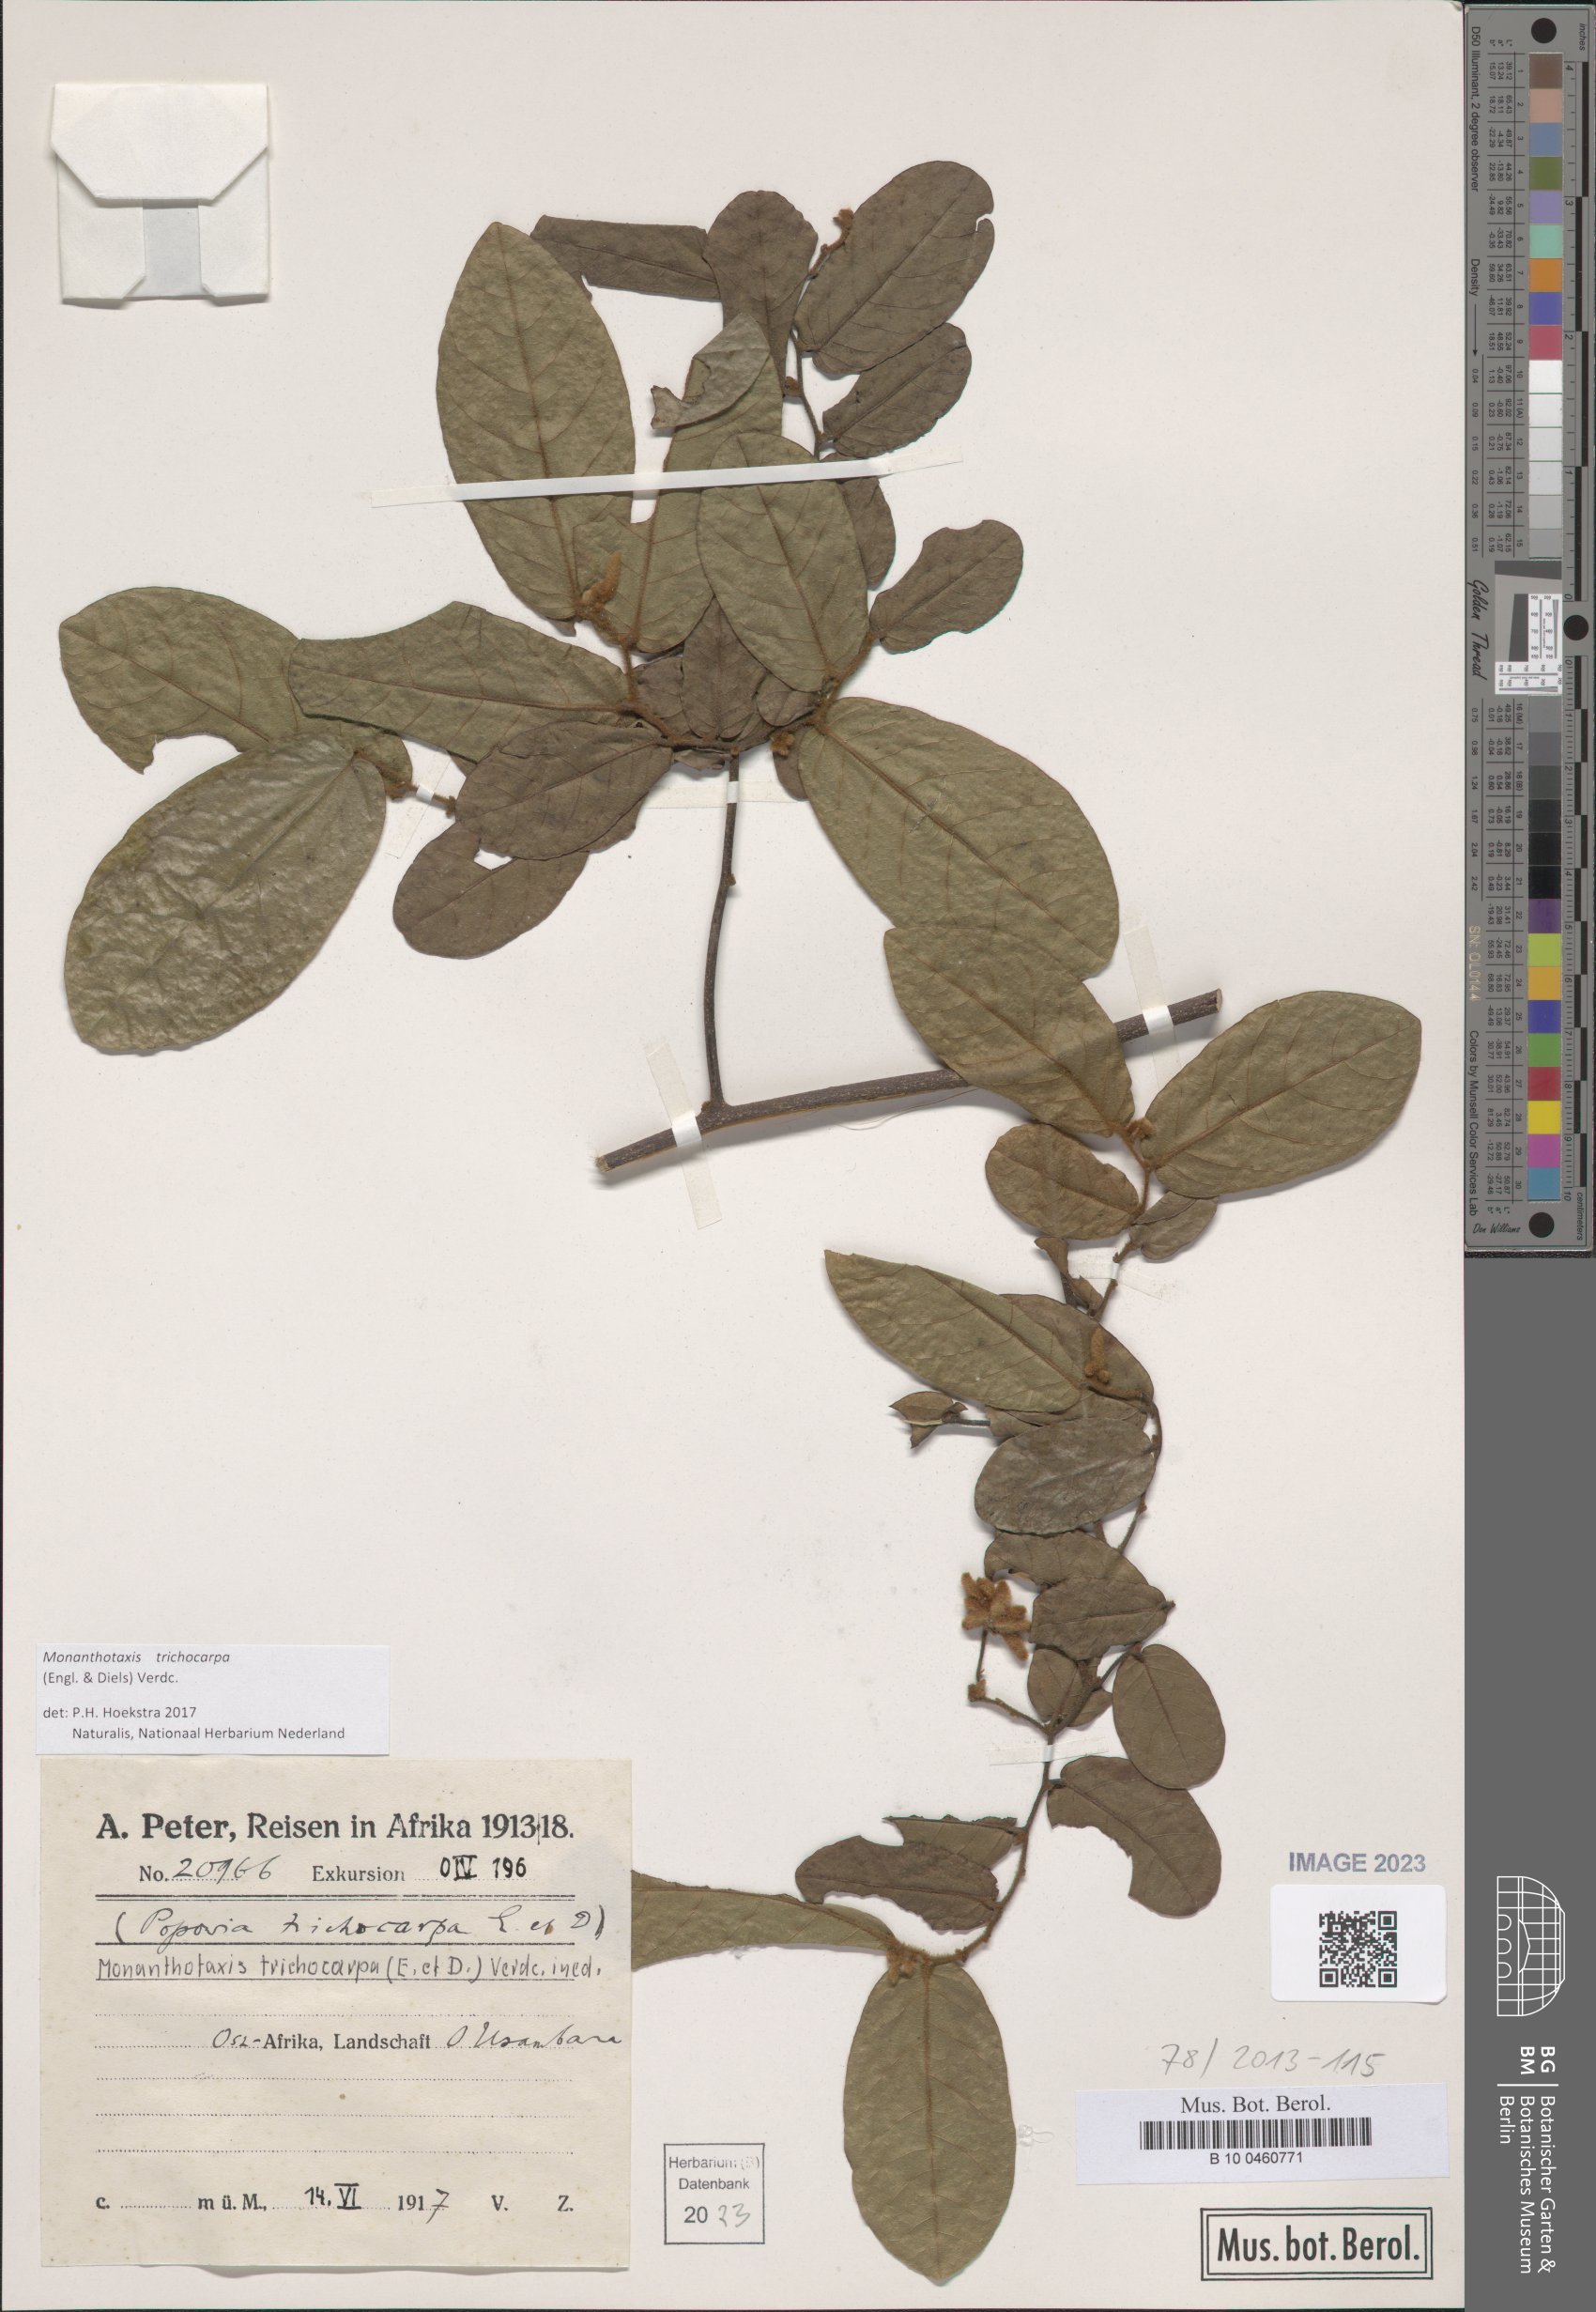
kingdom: Plantae
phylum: Tracheophyta
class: Magnoliopsida
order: Magnoliales
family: Annonaceae
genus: Monanthotaxis
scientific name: Monanthotaxis trichocarpa
